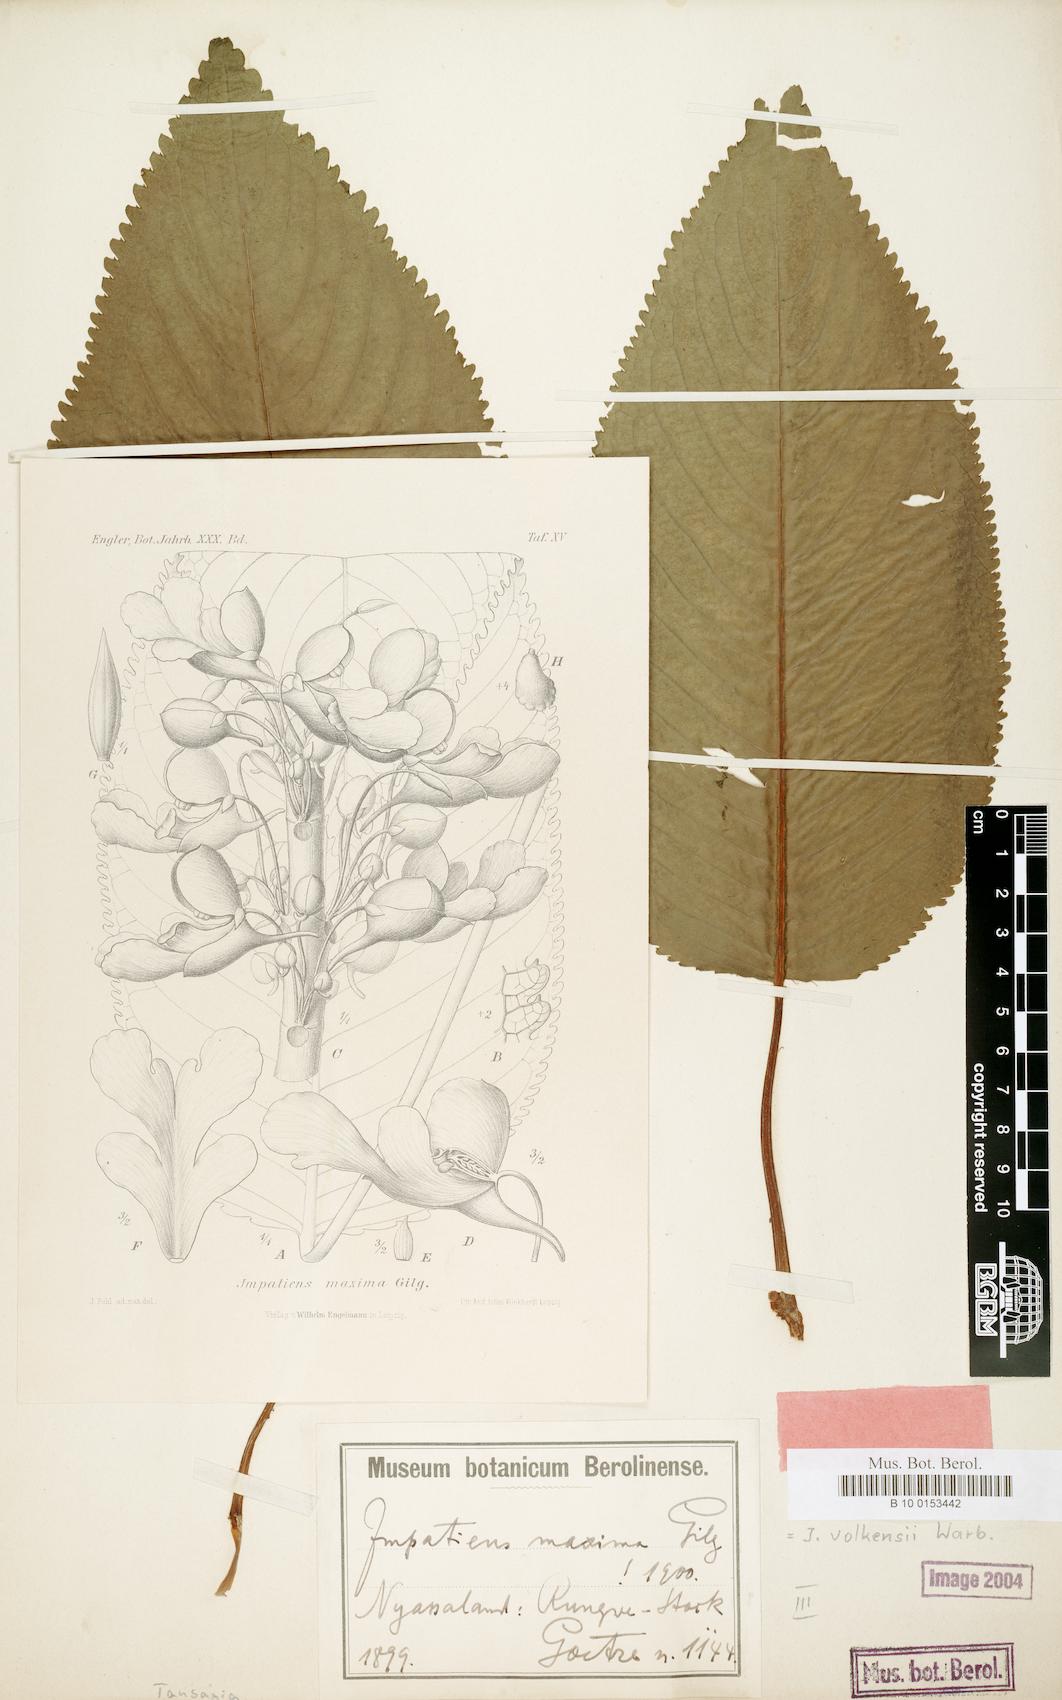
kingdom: Plantae
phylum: Tracheophyta
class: Magnoliopsida
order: Ericales
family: Balsaminaceae
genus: Impatiens
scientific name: Impatiens volkensii
